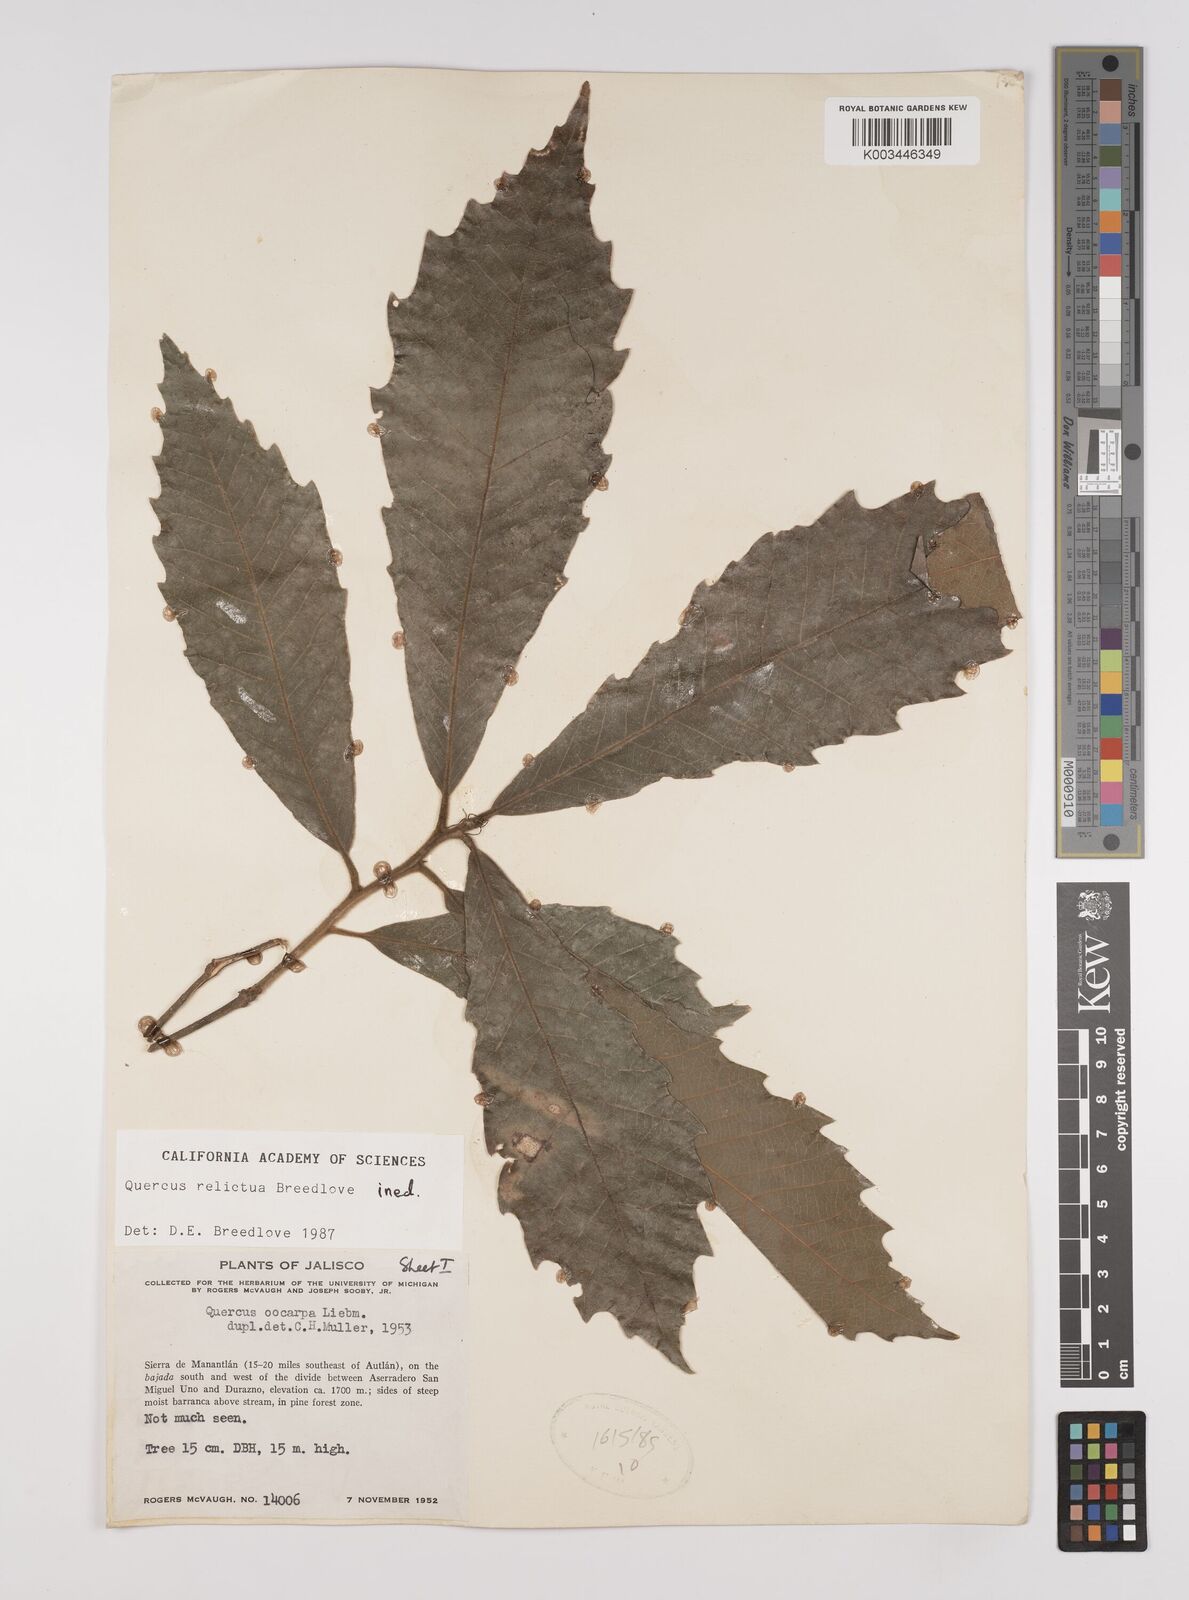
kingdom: Plantae
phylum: Tracheophyta
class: Magnoliopsida
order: Fagales
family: Fagaceae
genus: Quercus
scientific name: Quercus
